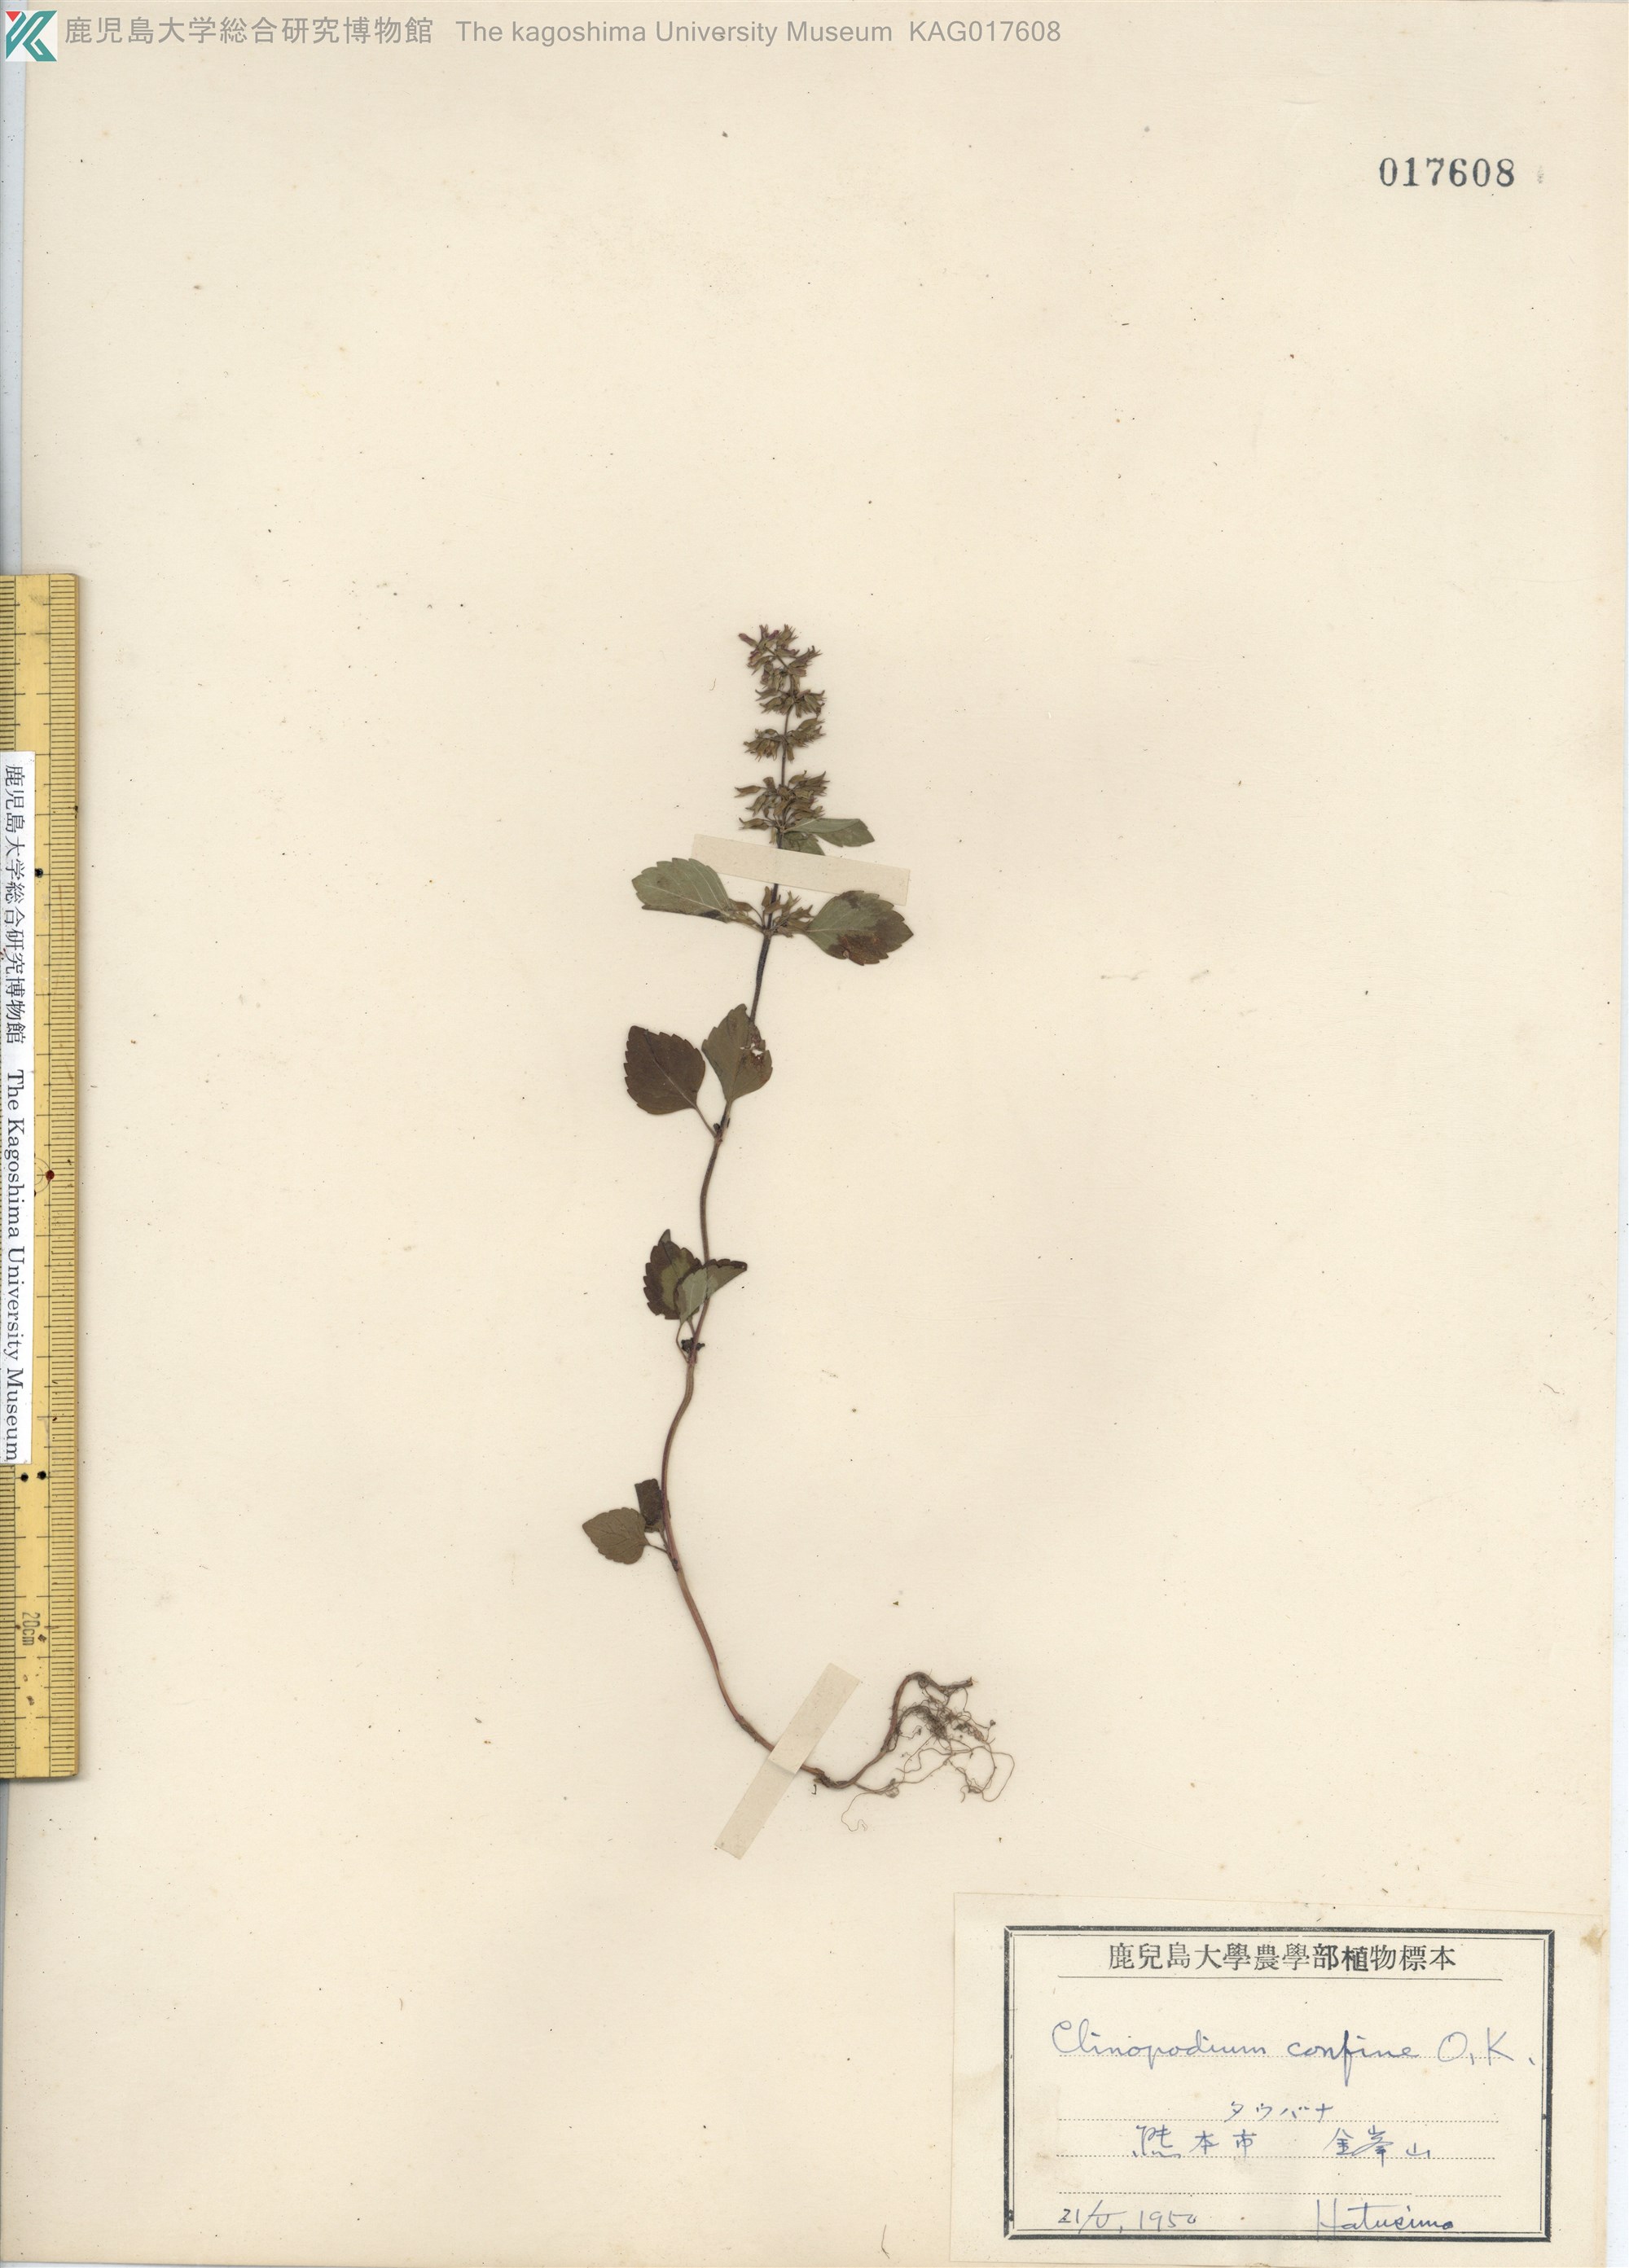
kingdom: Plantae
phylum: Tracheophyta
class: Magnoliopsida
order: Lamiales
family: Lamiaceae
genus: Clinopodium
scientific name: Clinopodium gracile
